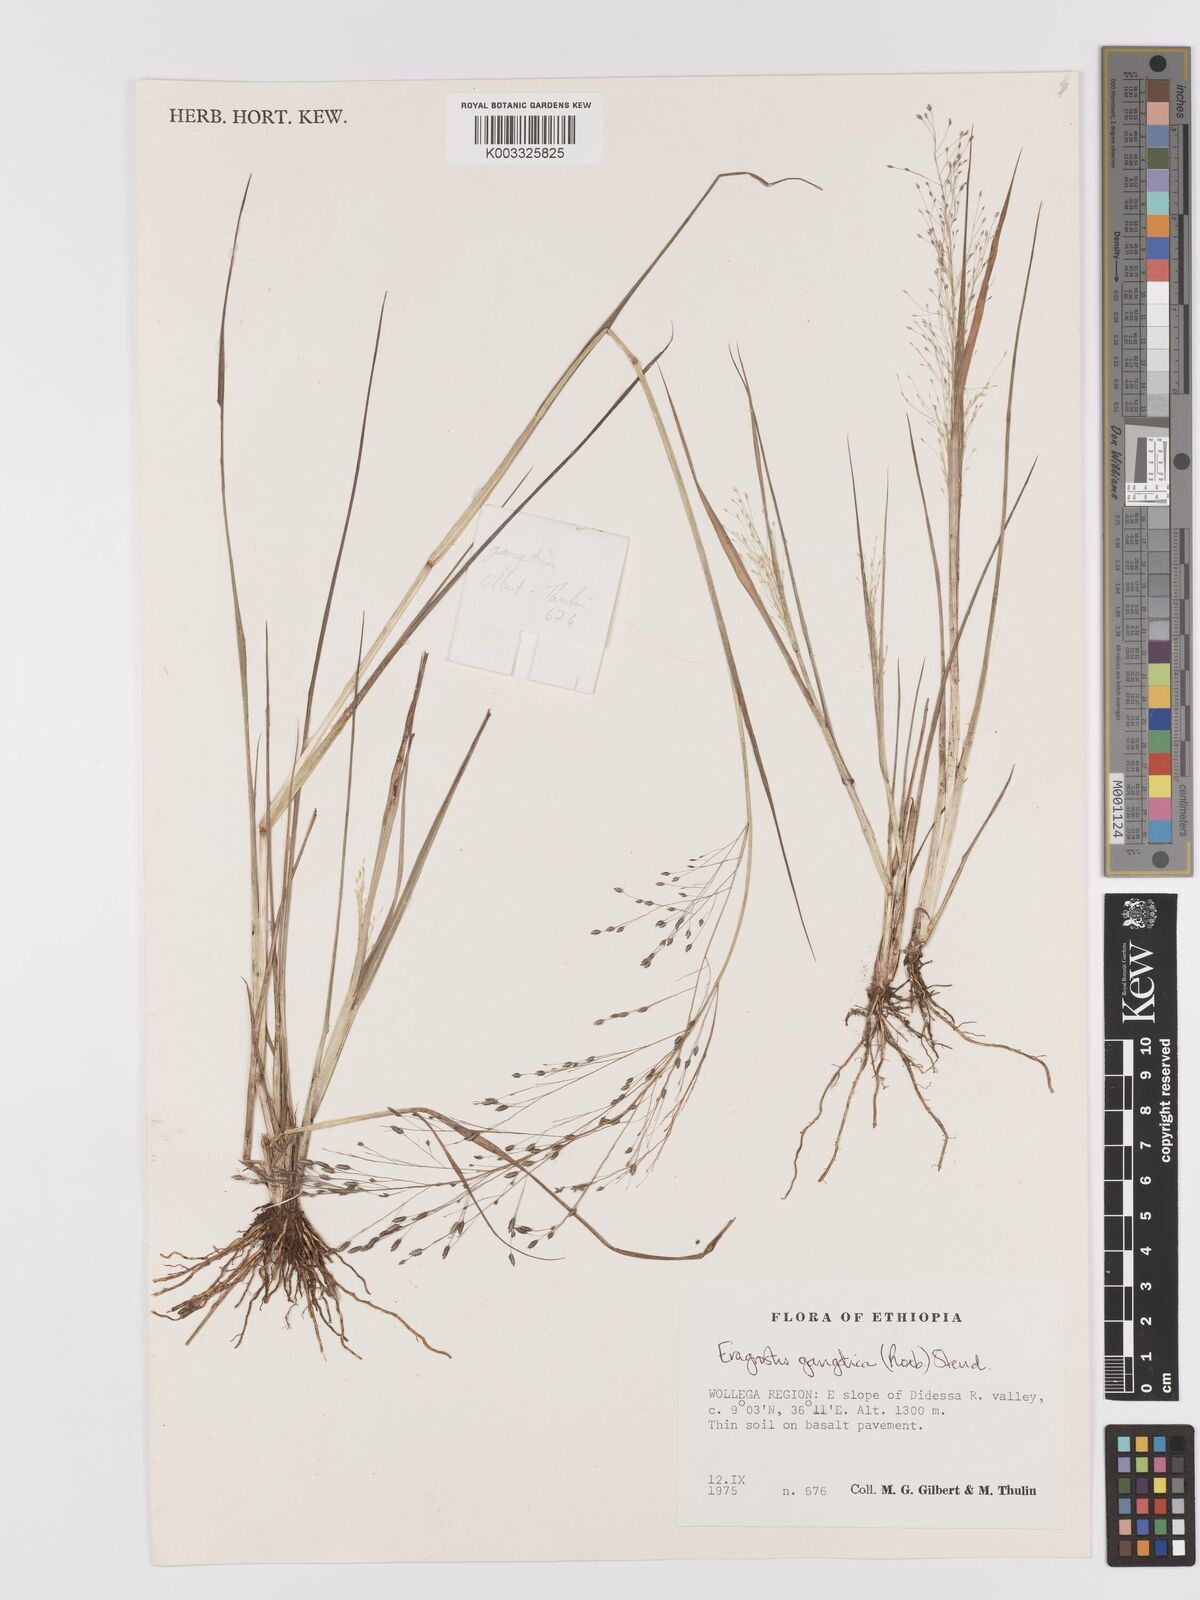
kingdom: Plantae
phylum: Tracheophyta
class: Liliopsida
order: Poales
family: Poaceae
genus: Eragrostis
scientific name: Eragrostis gangetica
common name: Slimflower lovegrass
